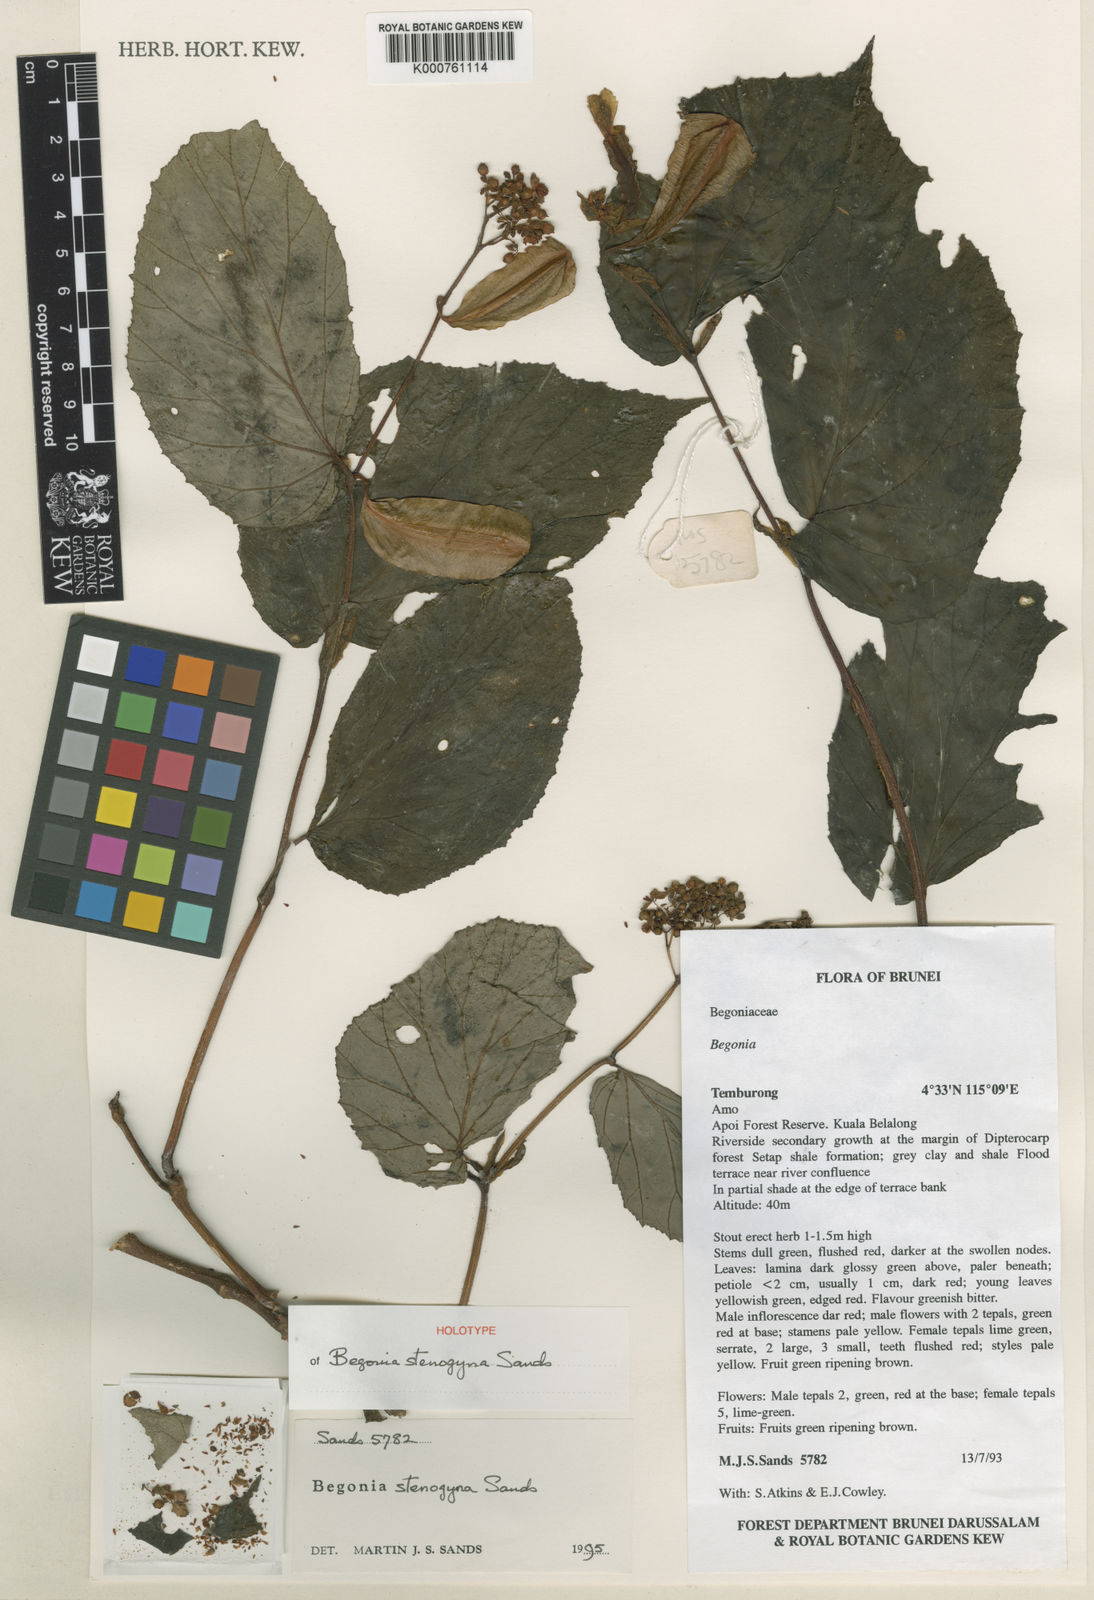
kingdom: Plantae
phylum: Tracheophyta
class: Magnoliopsida
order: Cucurbitales
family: Begoniaceae
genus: Begonia
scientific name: Begonia stenogyna
